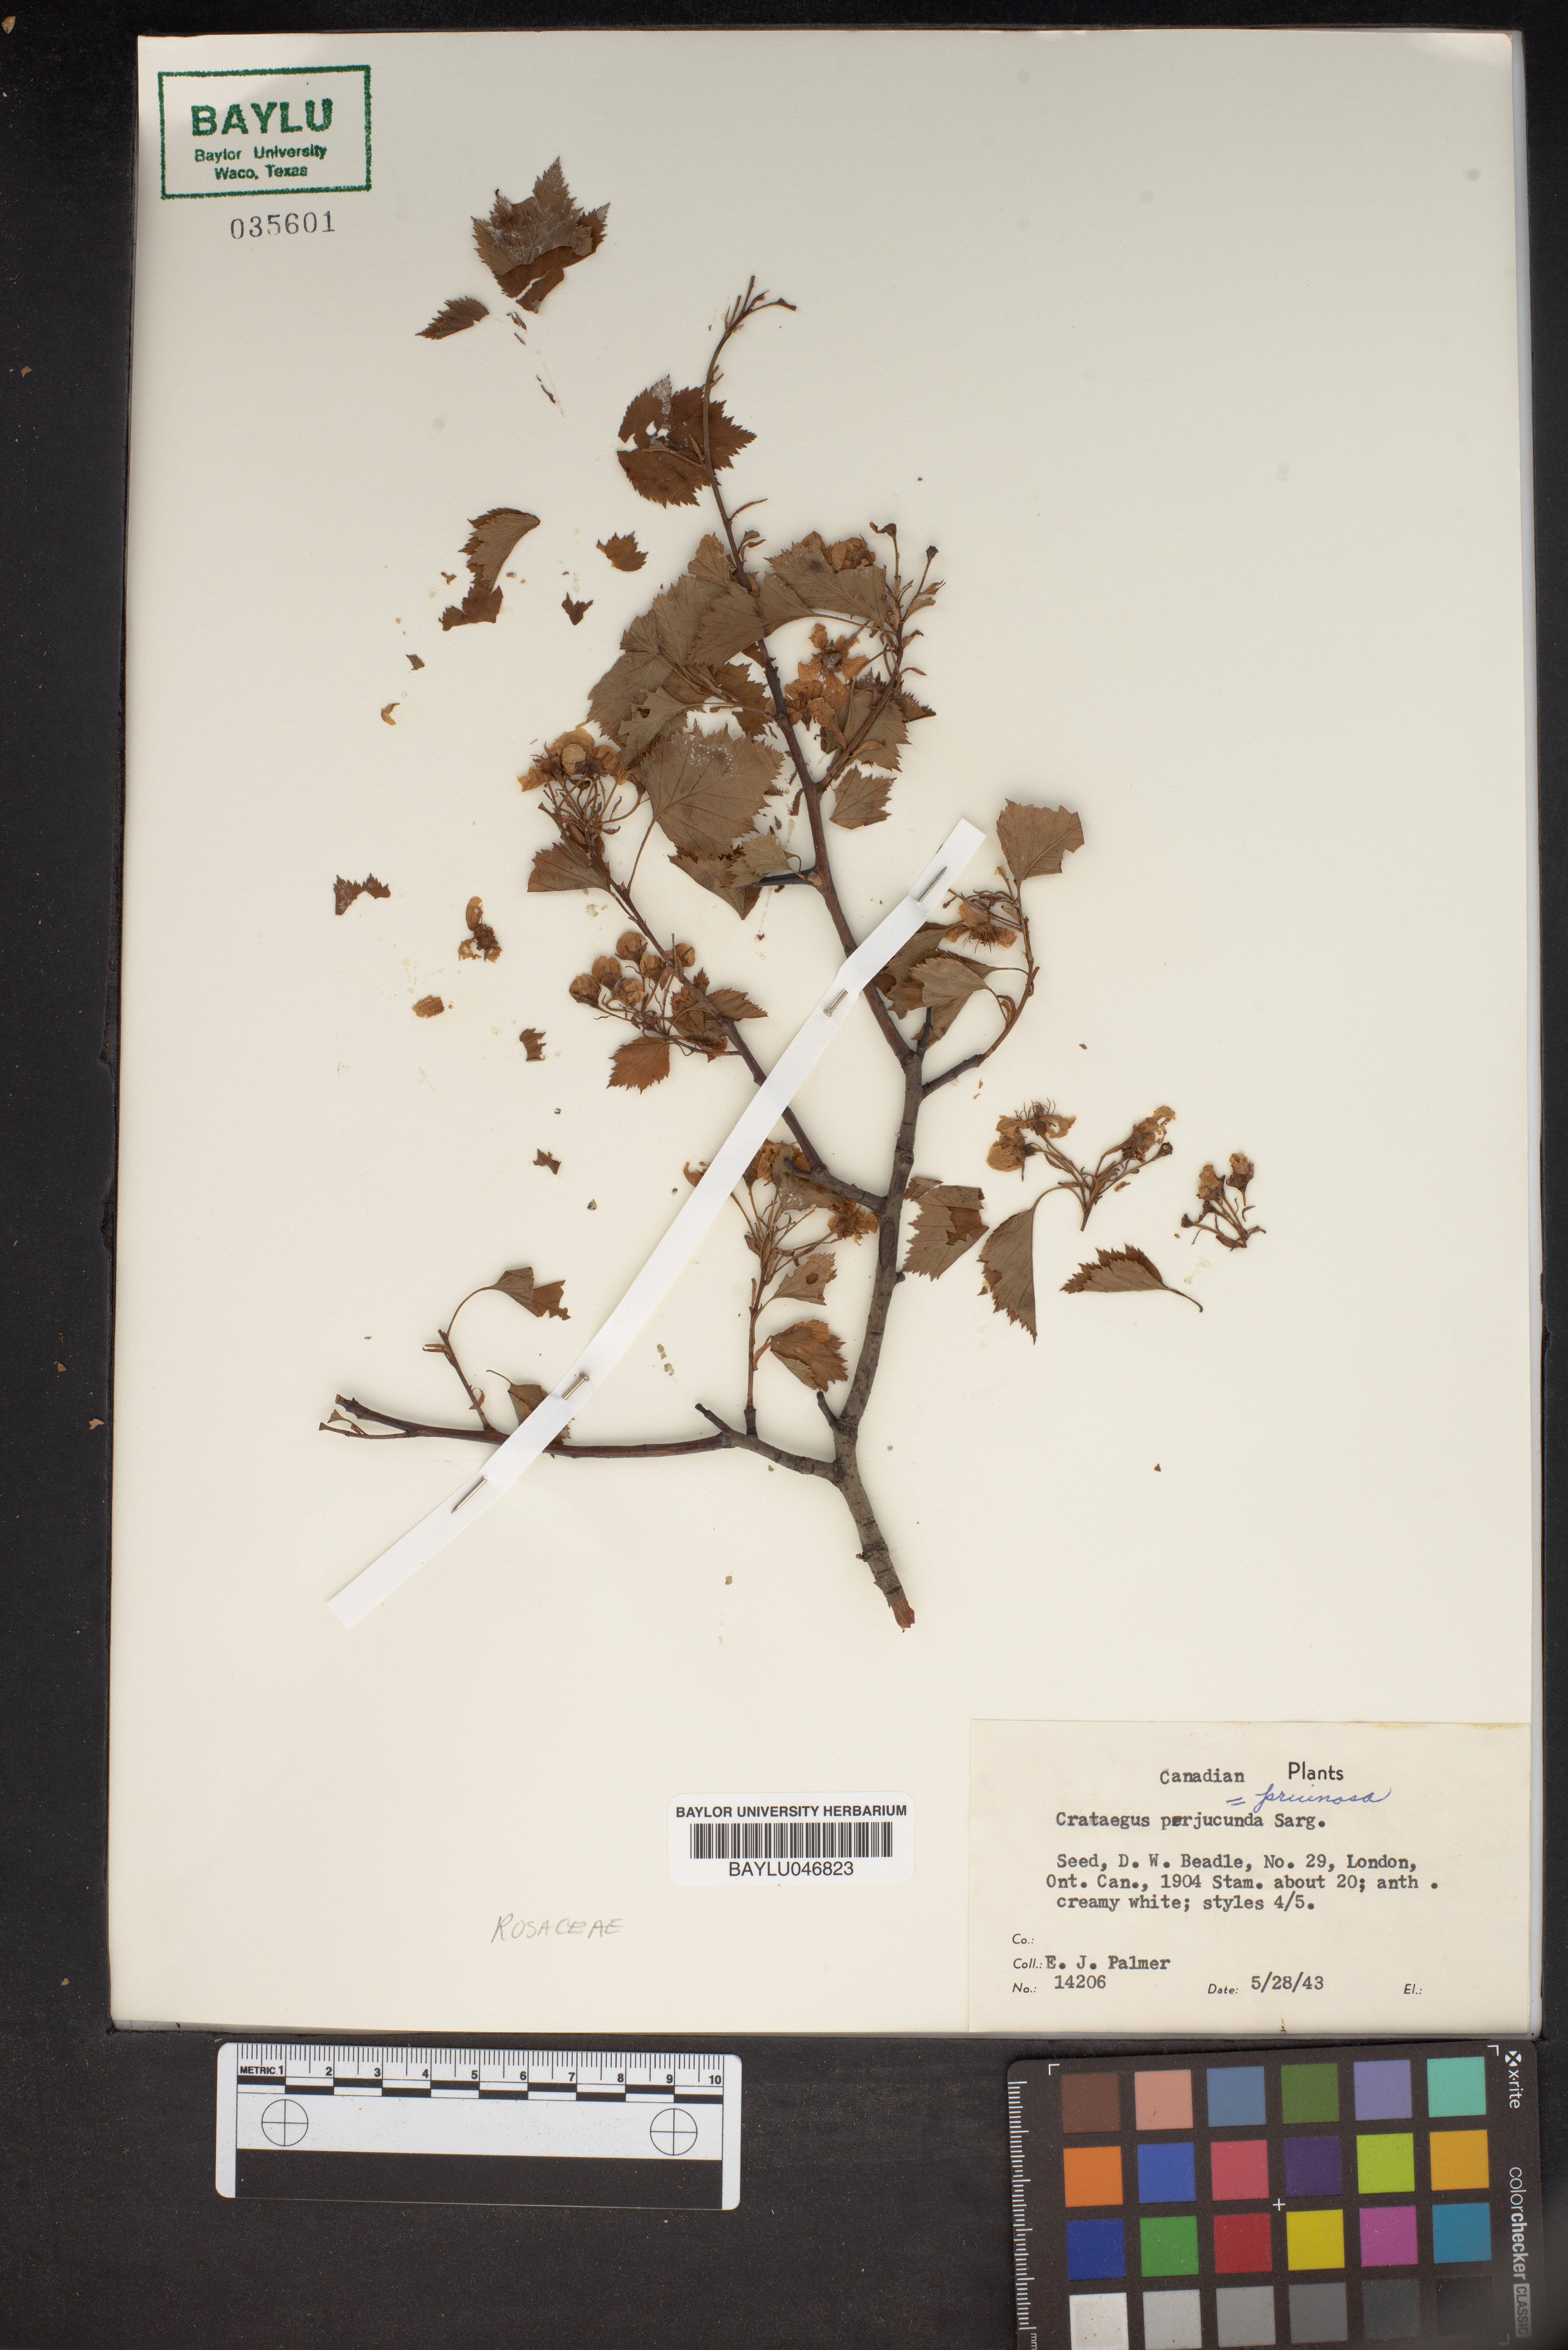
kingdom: Plantae
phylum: Tracheophyta
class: Magnoliopsida
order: Rosales
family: Rosaceae
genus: Crataegus
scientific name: Crataegus cognata
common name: Cognate hawthorn
